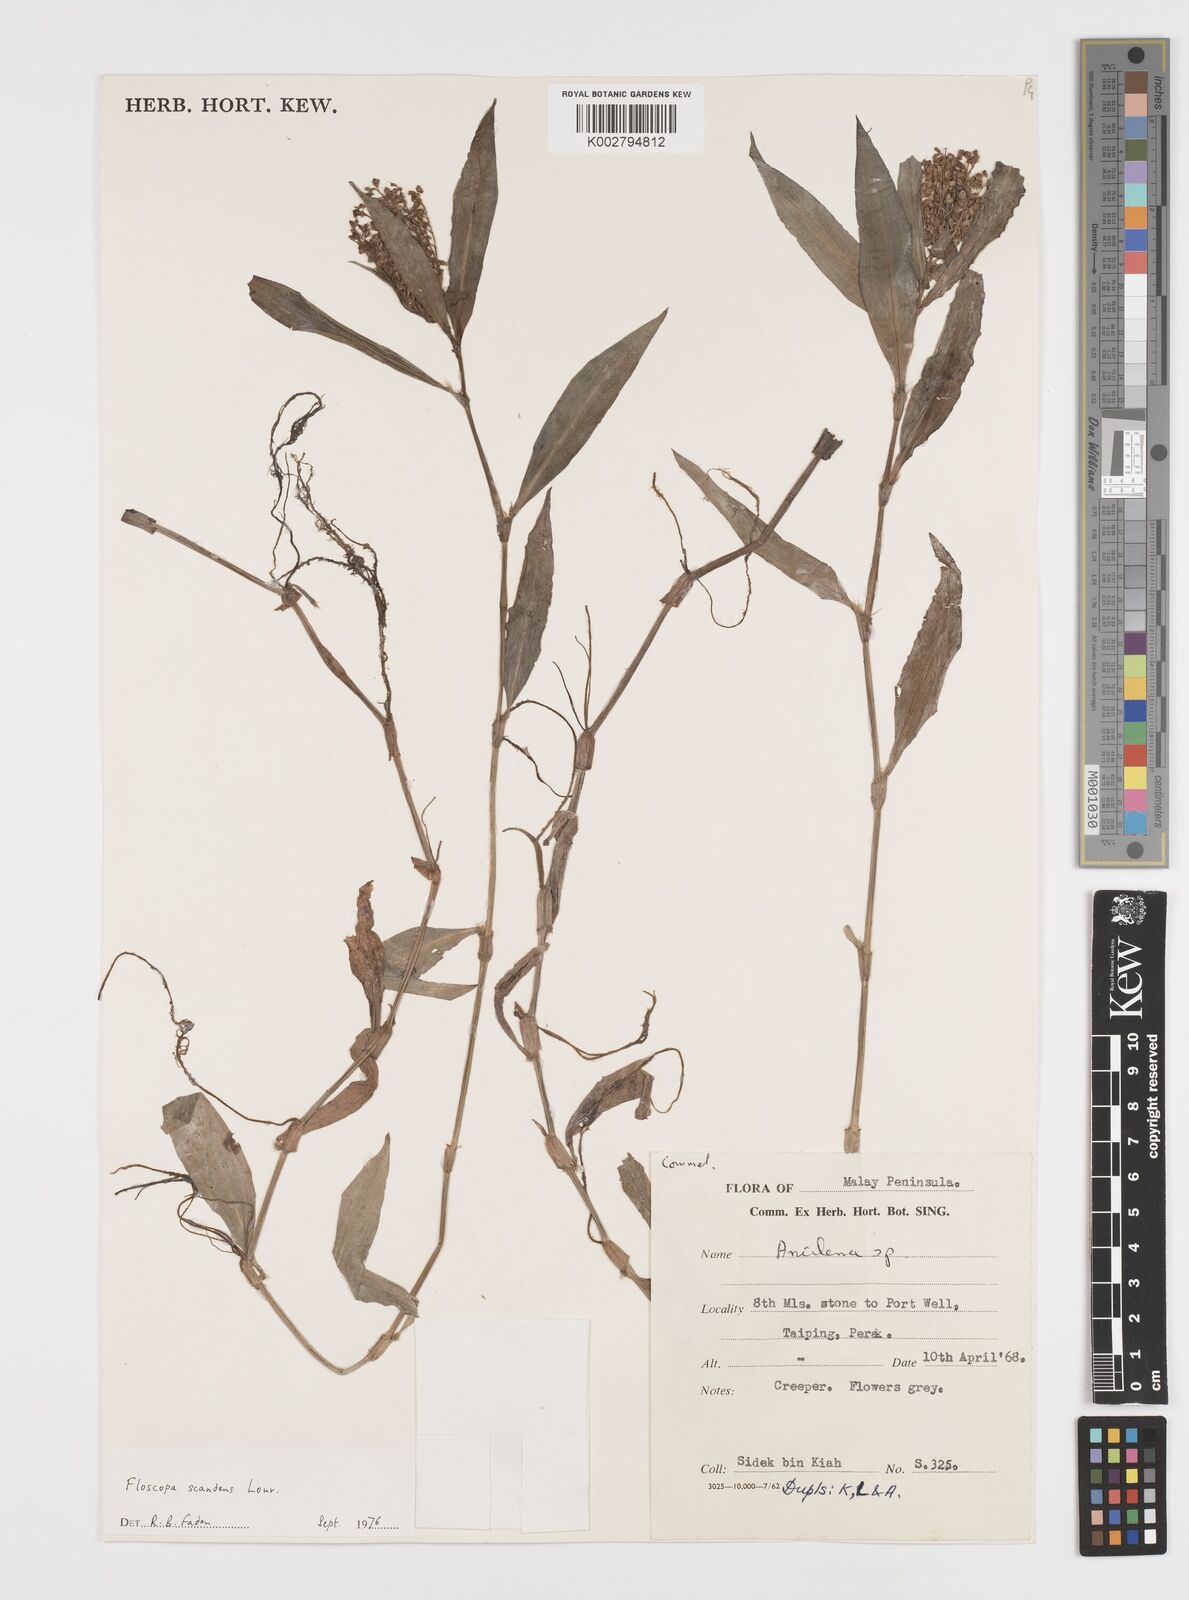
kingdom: Plantae
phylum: Tracheophyta
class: Liliopsida
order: Commelinales
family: Commelinaceae
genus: Floscopa
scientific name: Floscopa scandens
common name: Climbing flower cup
